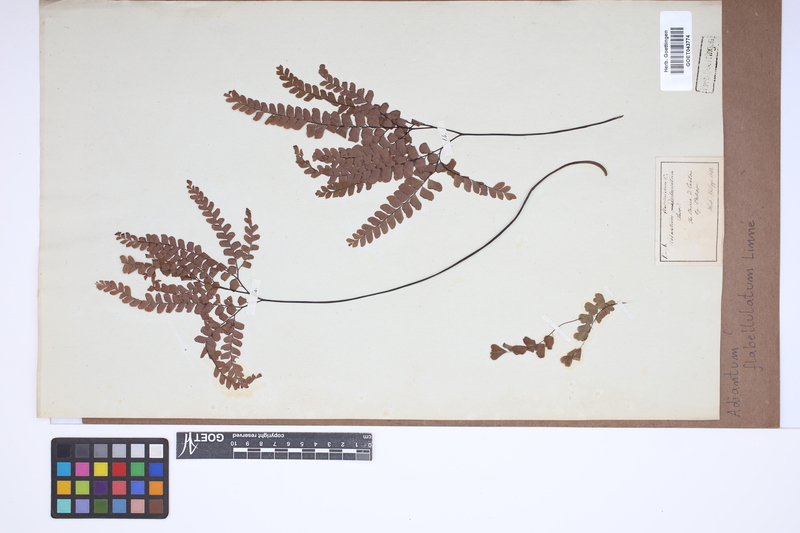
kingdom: Plantae
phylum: Tracheophyta
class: Polypodiopsida
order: Polypodiales
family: Pteridaceae
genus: Adiantum
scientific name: Adiantum flabellulatum
